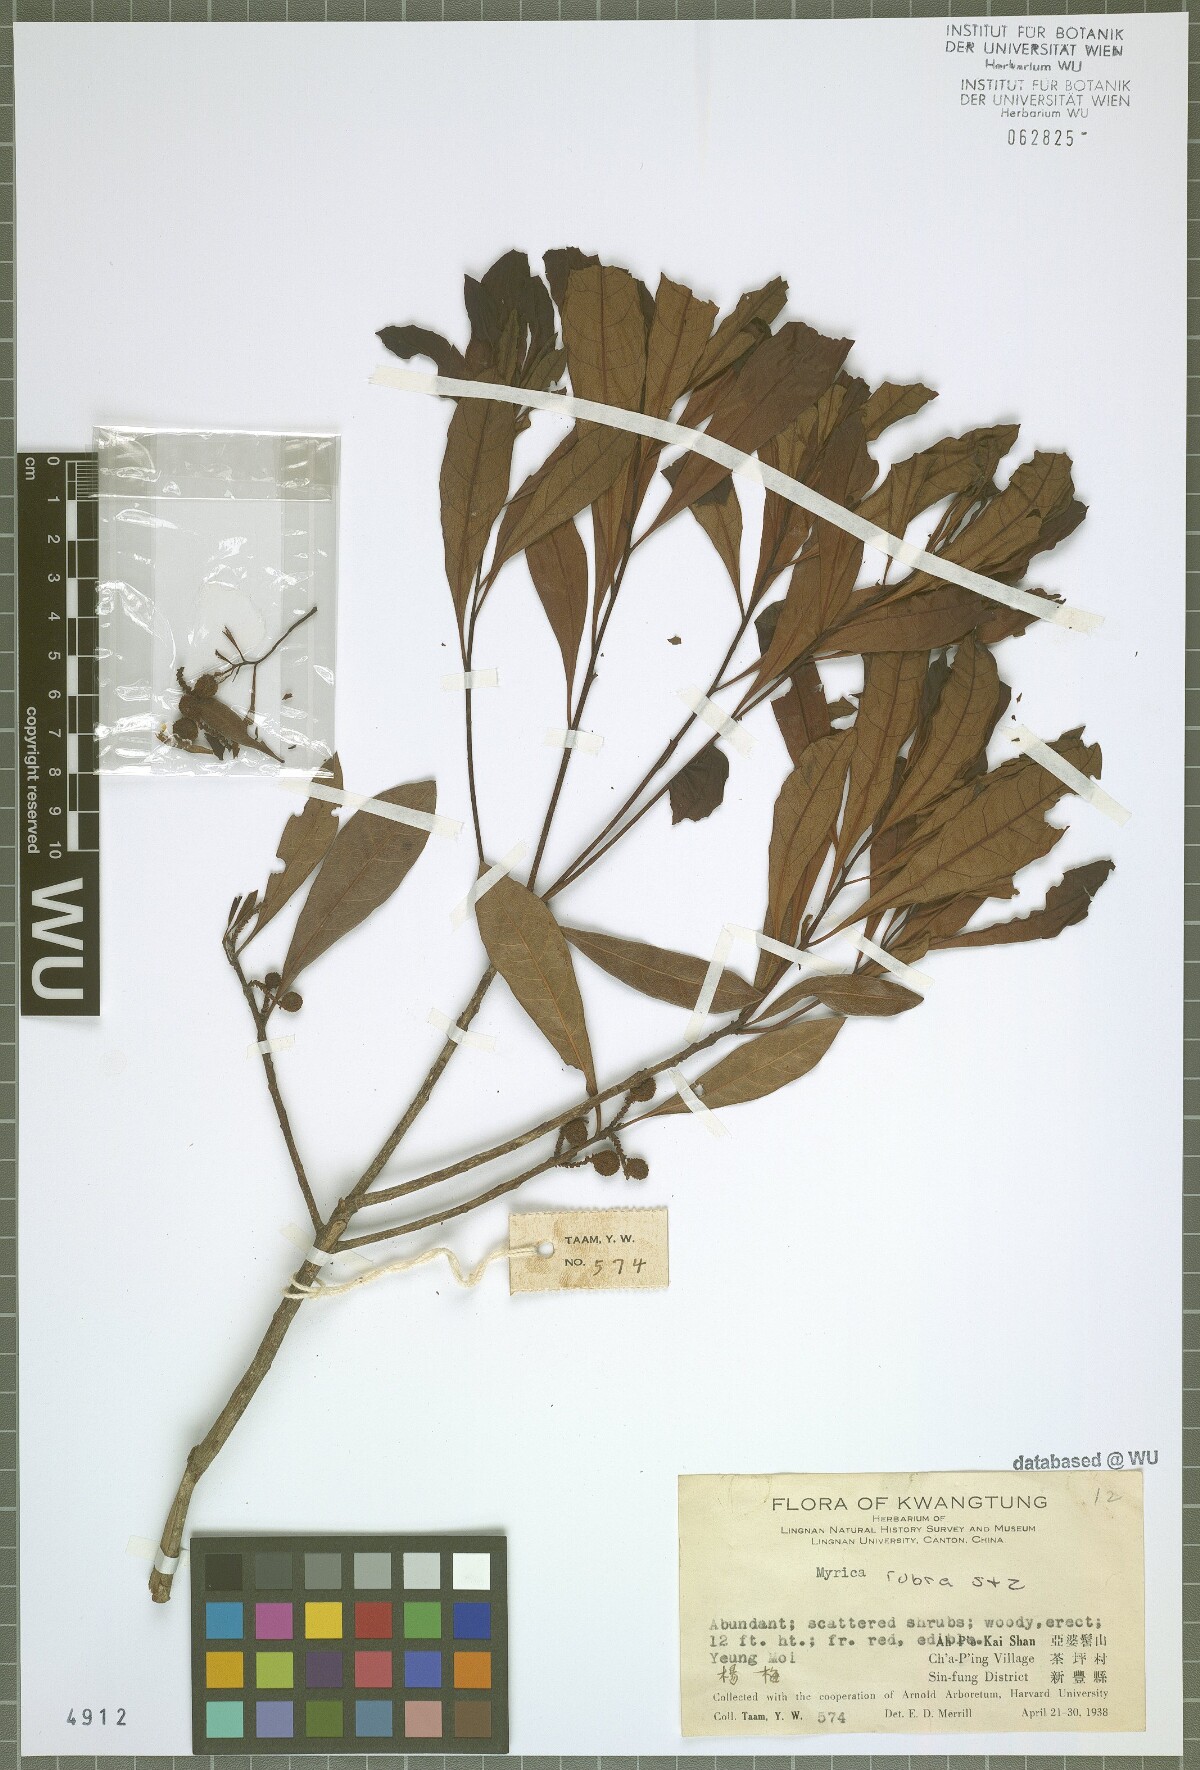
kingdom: Plantae
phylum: Tracheophyta
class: Magnoliopsida
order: Fagales
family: Myricaceae
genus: Morella
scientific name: Morella rubra
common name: Red bayberry
